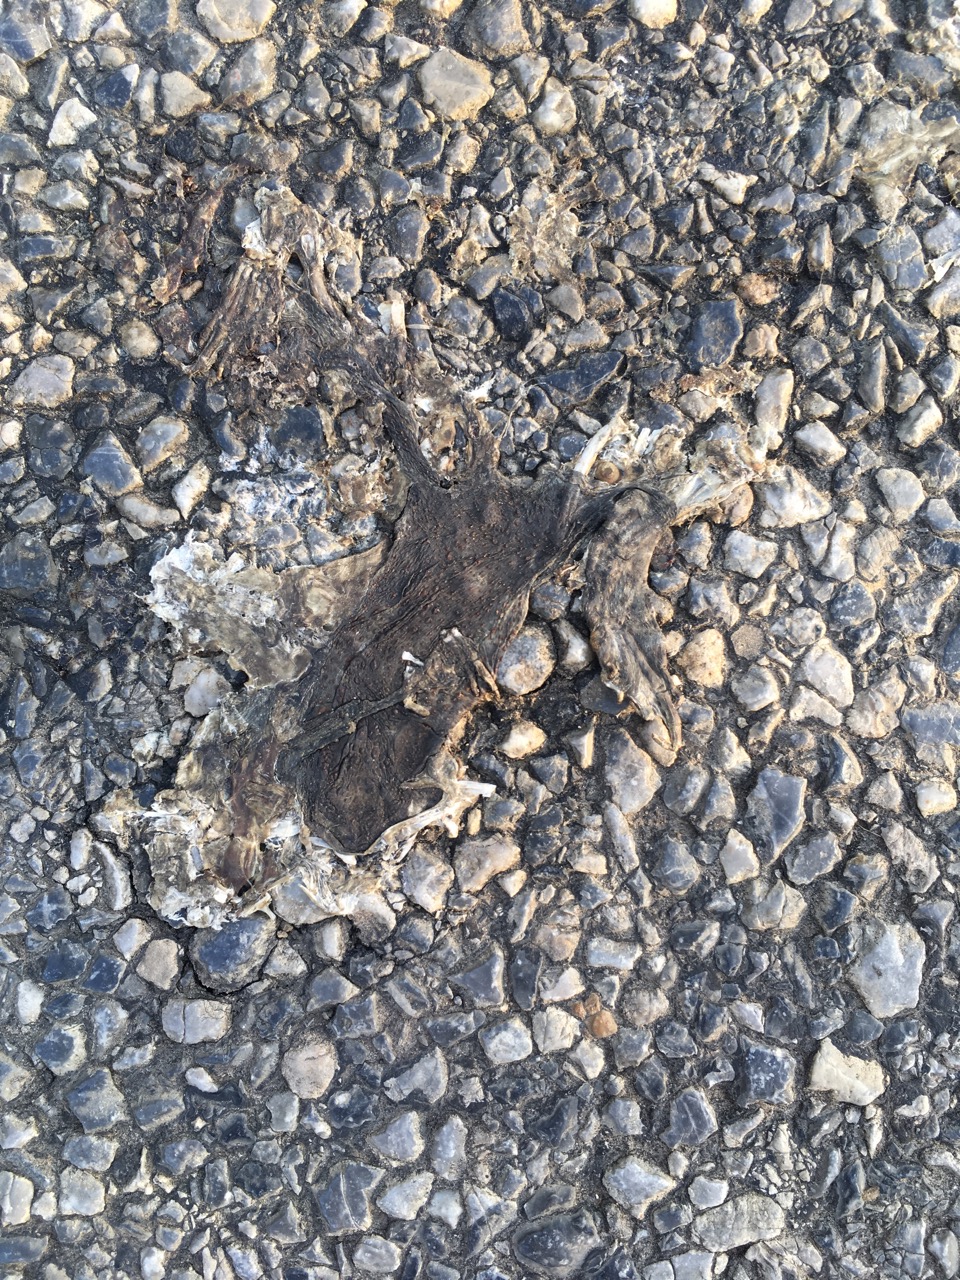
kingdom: Animalia
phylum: Chordata
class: Amphibia
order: Anura
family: Bufonidae
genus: Bufo
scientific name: Bufo bufo
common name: Common toad
